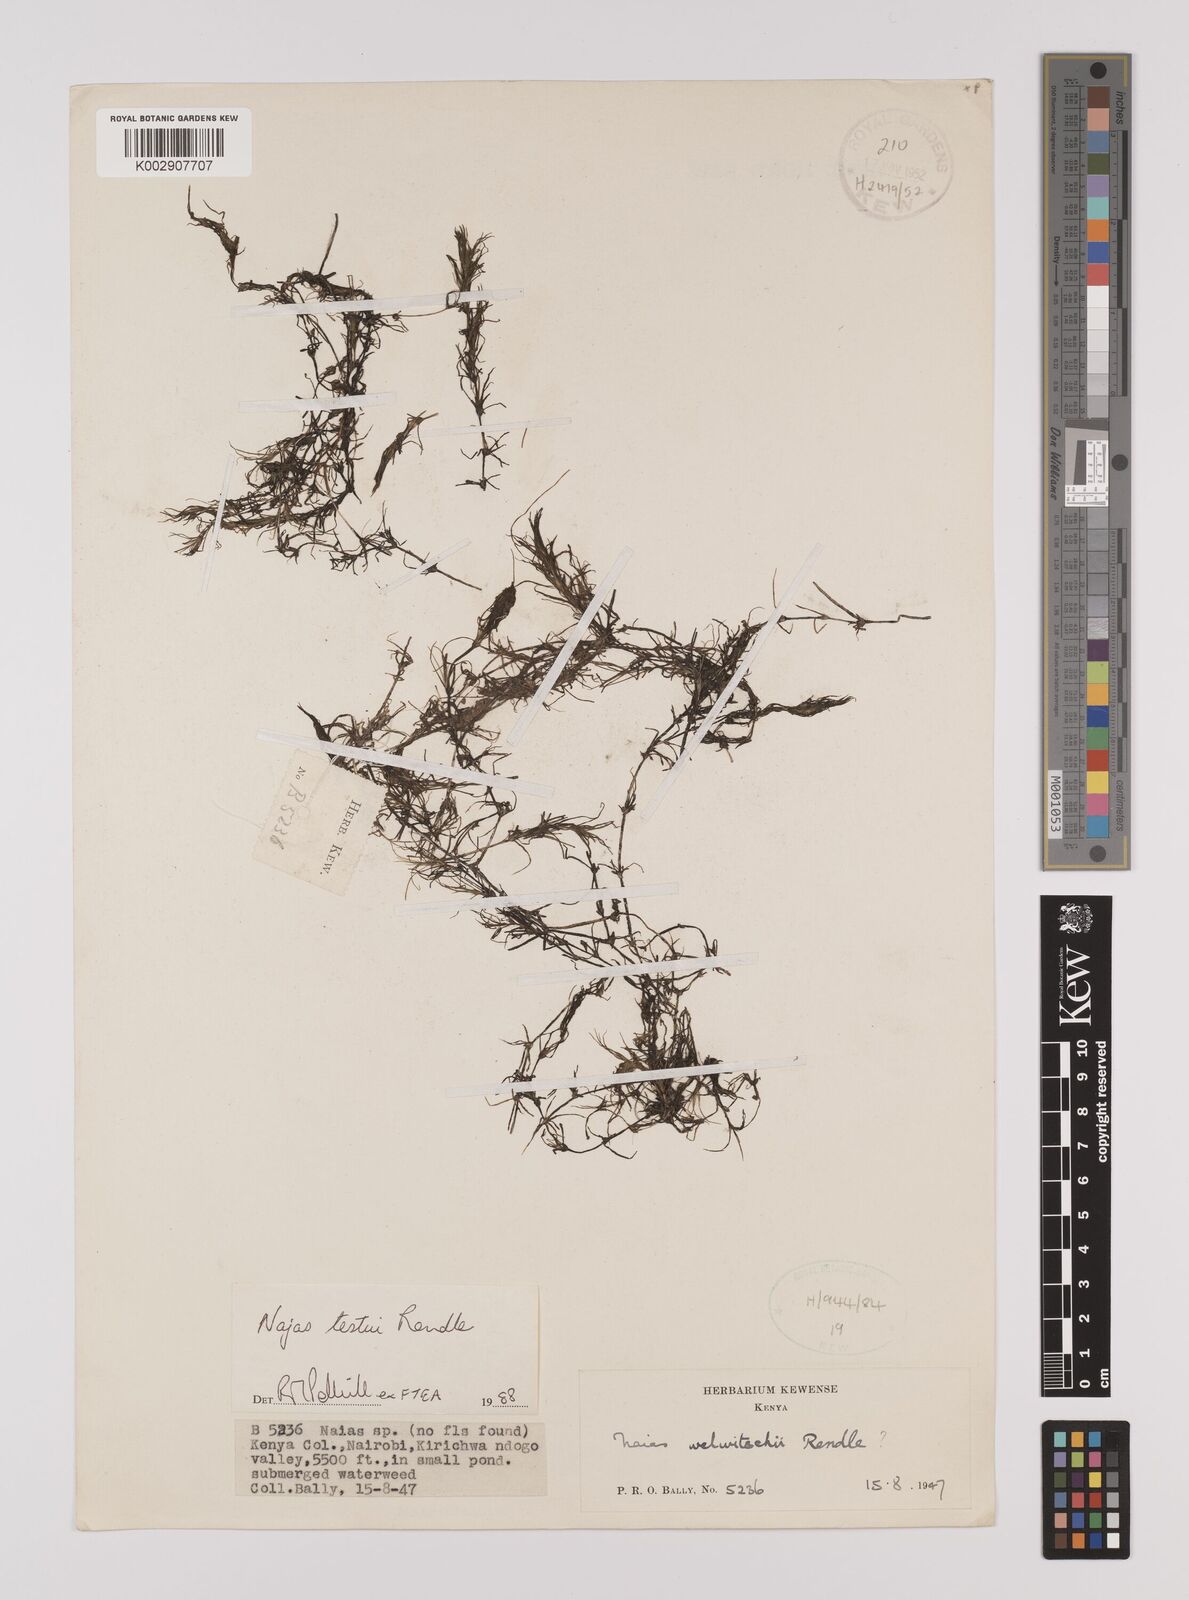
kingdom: Plantae
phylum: Tracheophyta
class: Liliopsida
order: Alismatales
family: Hydrocharitaceae
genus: Najas
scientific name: Najas testui
